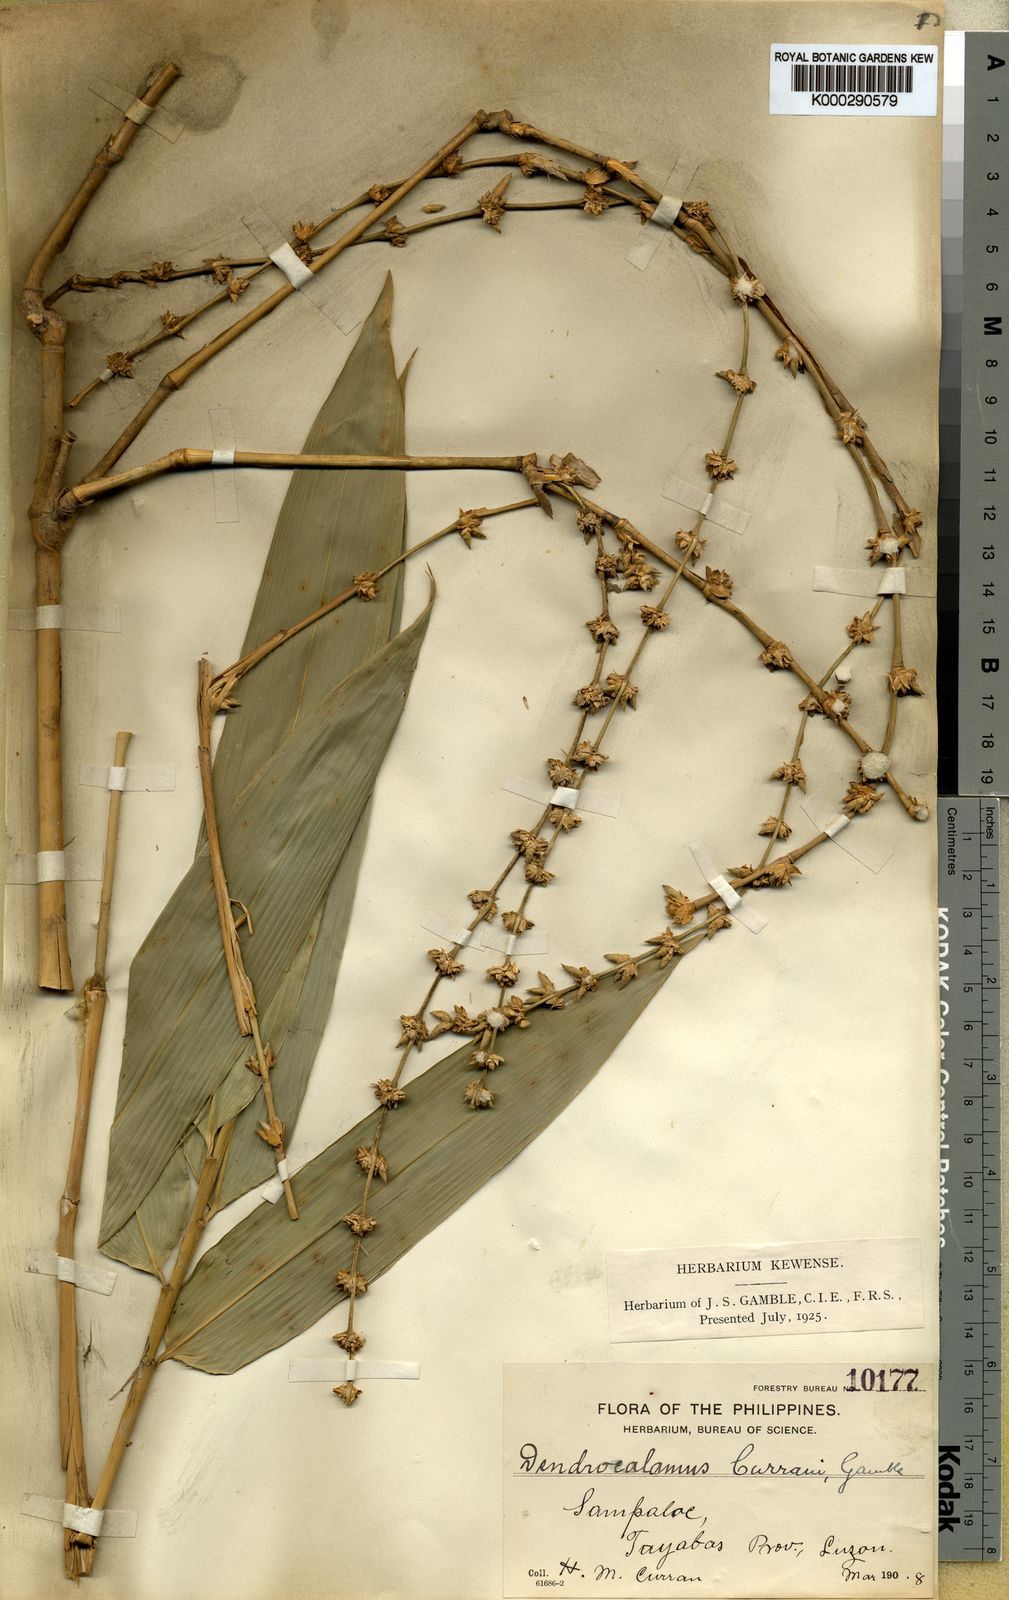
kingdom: Plantae
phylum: Tracheophyta
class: Liliopsida
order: Poales
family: Poaceae
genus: Gigantochloa
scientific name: Gigantochloa levis
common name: Smooth-shoot gigantochloa
